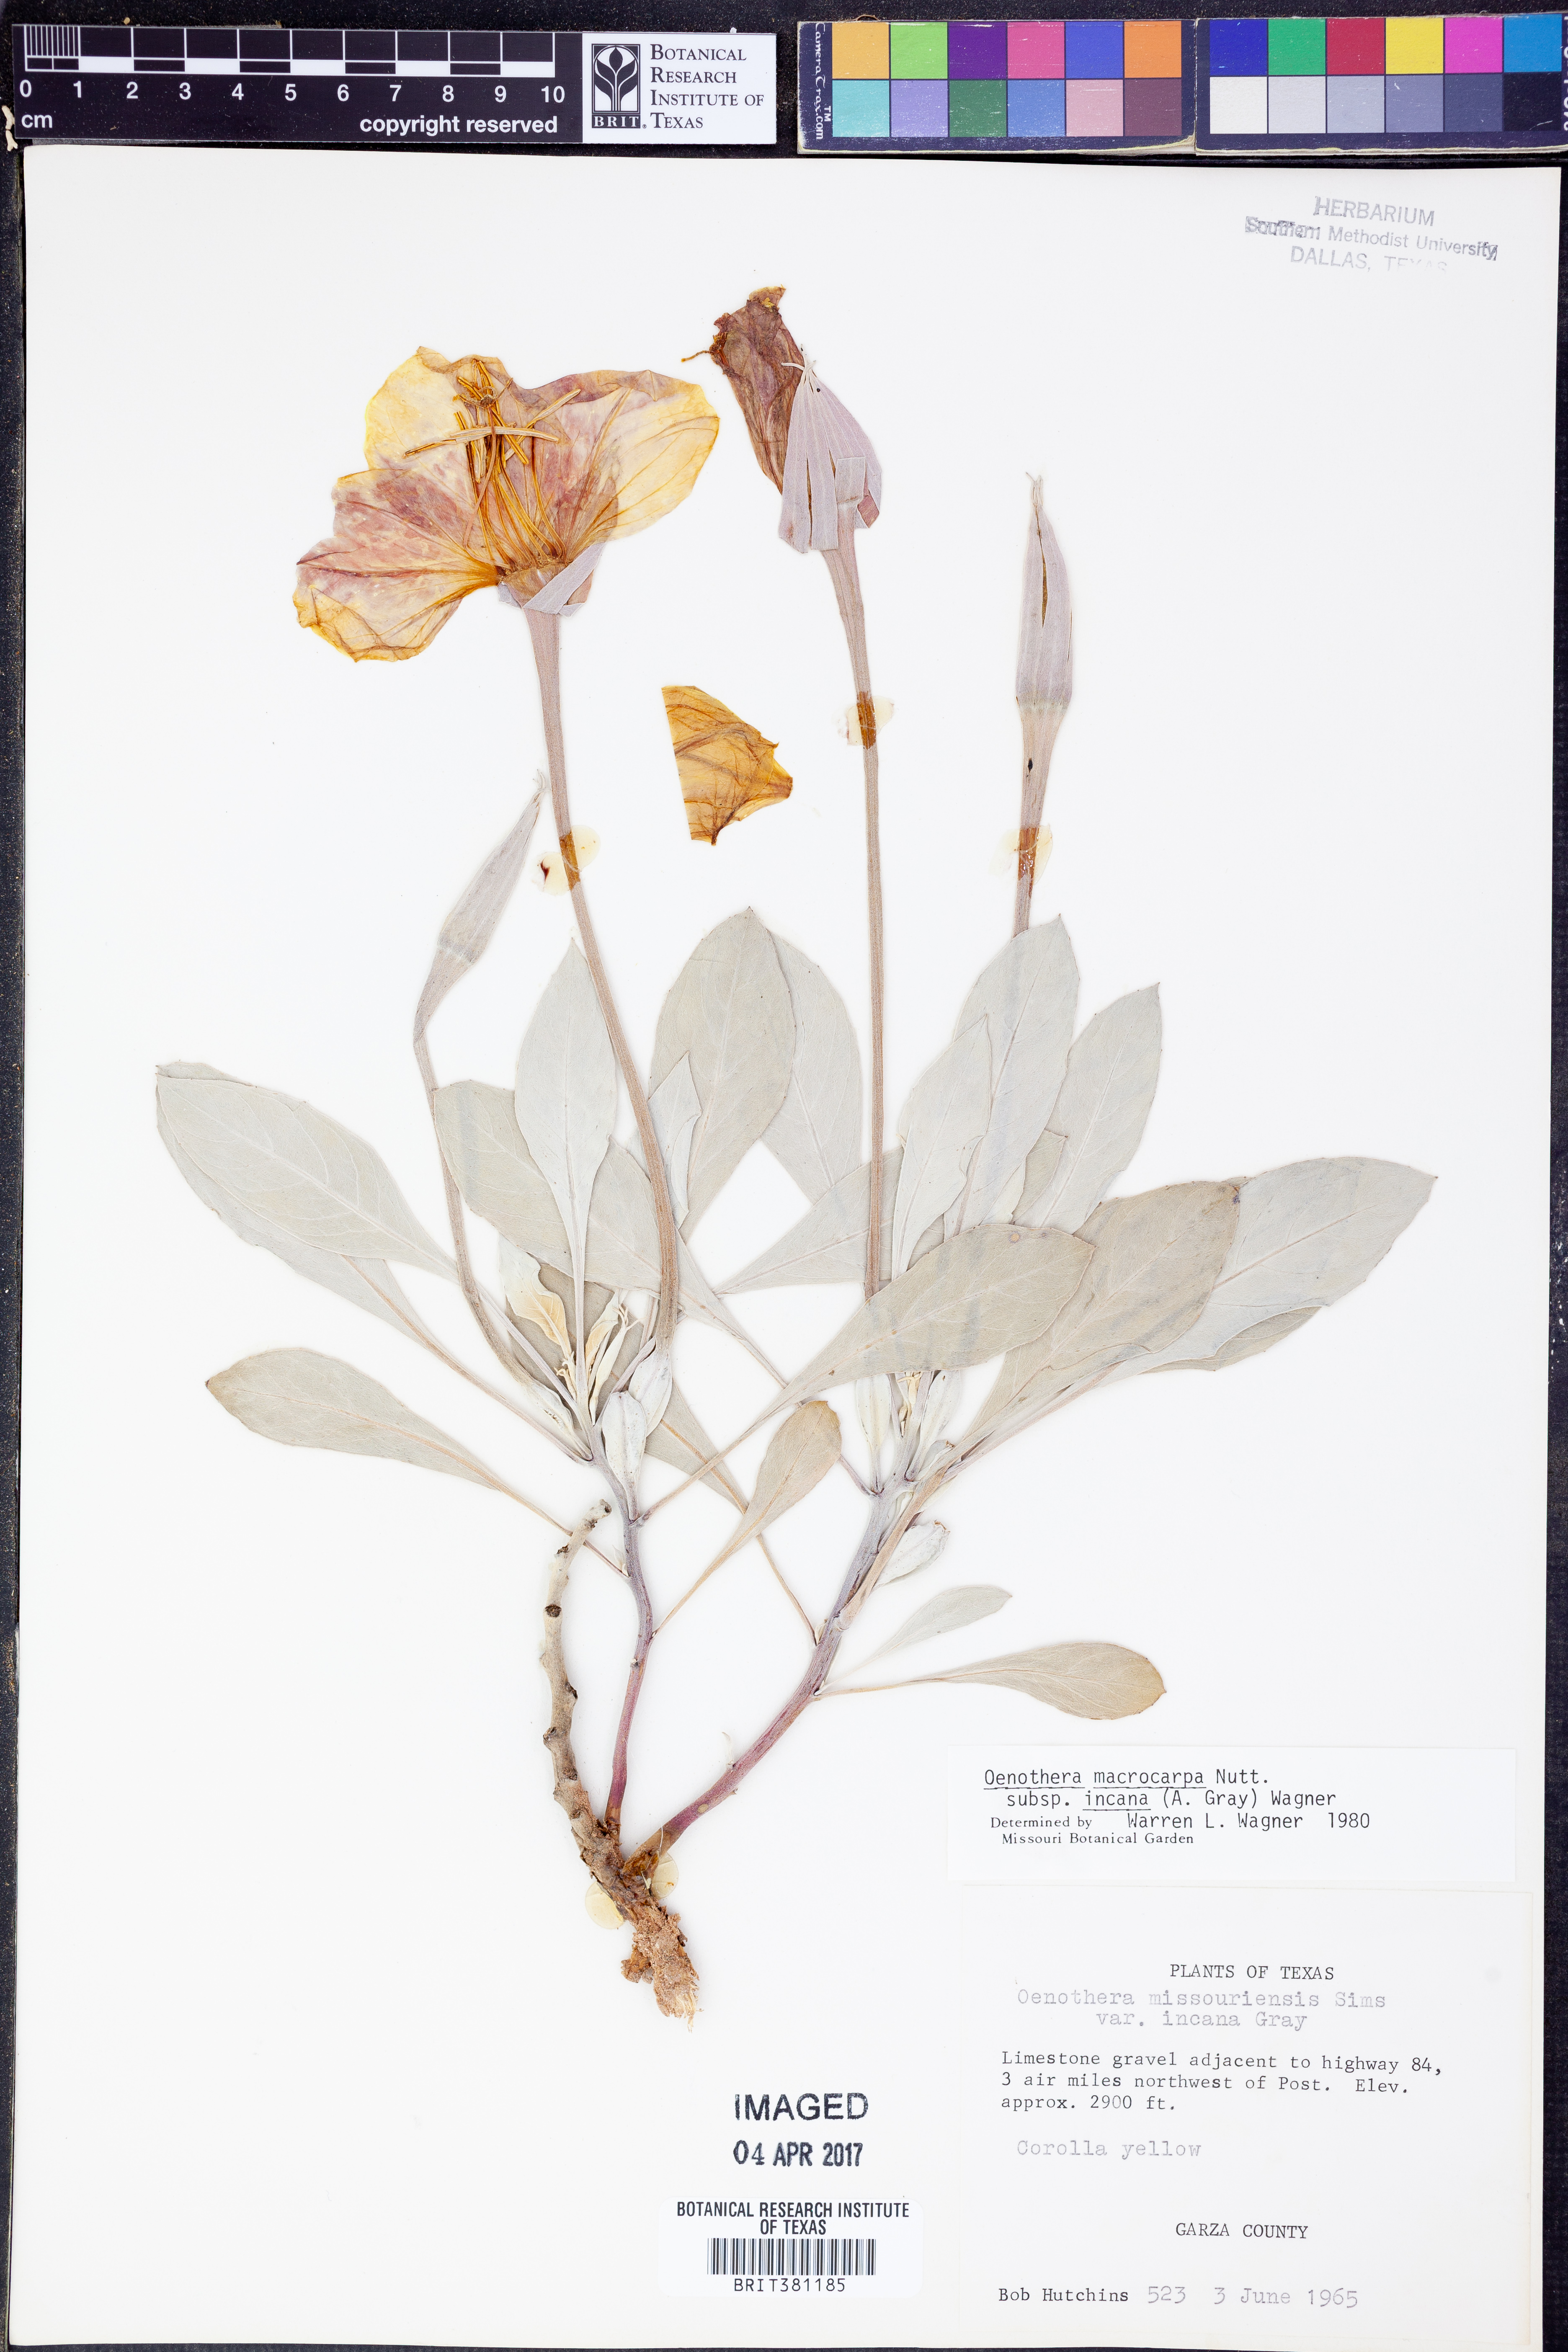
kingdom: Plantae
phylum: Tracheophyta
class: Magnoliopsida
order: Myrtales
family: Onagraceae
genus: Oenothera
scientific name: Oenothera macrocarpa
